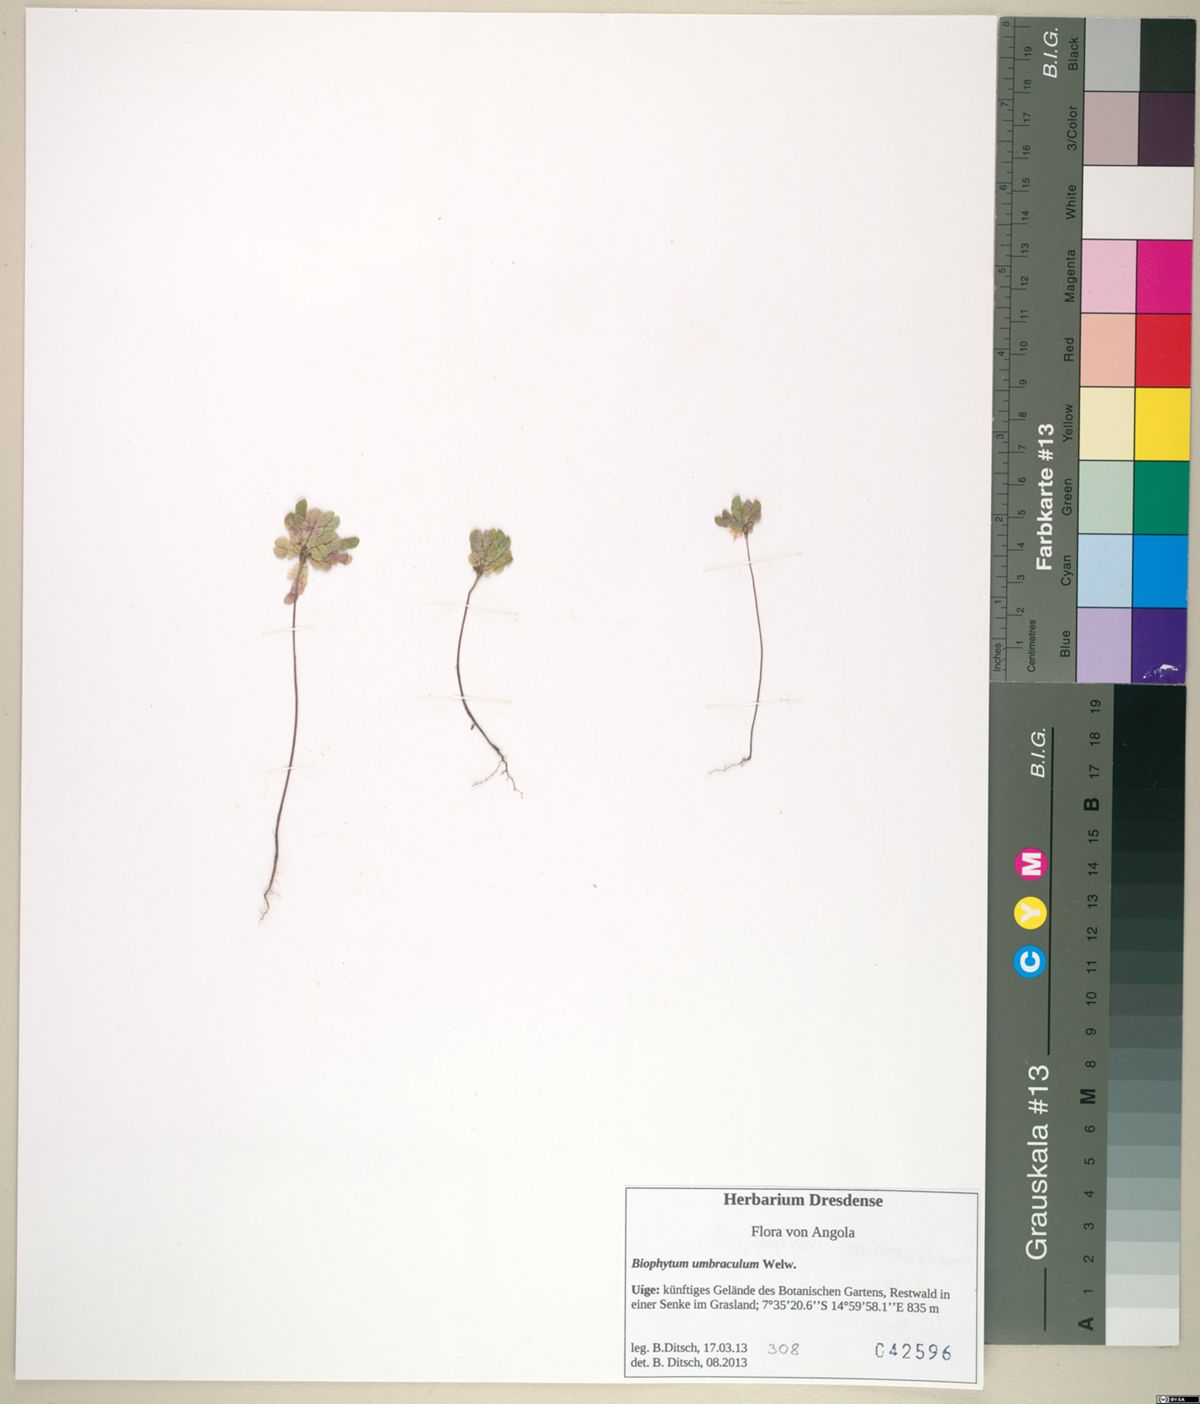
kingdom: Plantae
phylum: Tracheophyta
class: Magnoliopsida
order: Oxalidales
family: Oxalidaceae
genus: Biophytum
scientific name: Biophytum umbraculum
